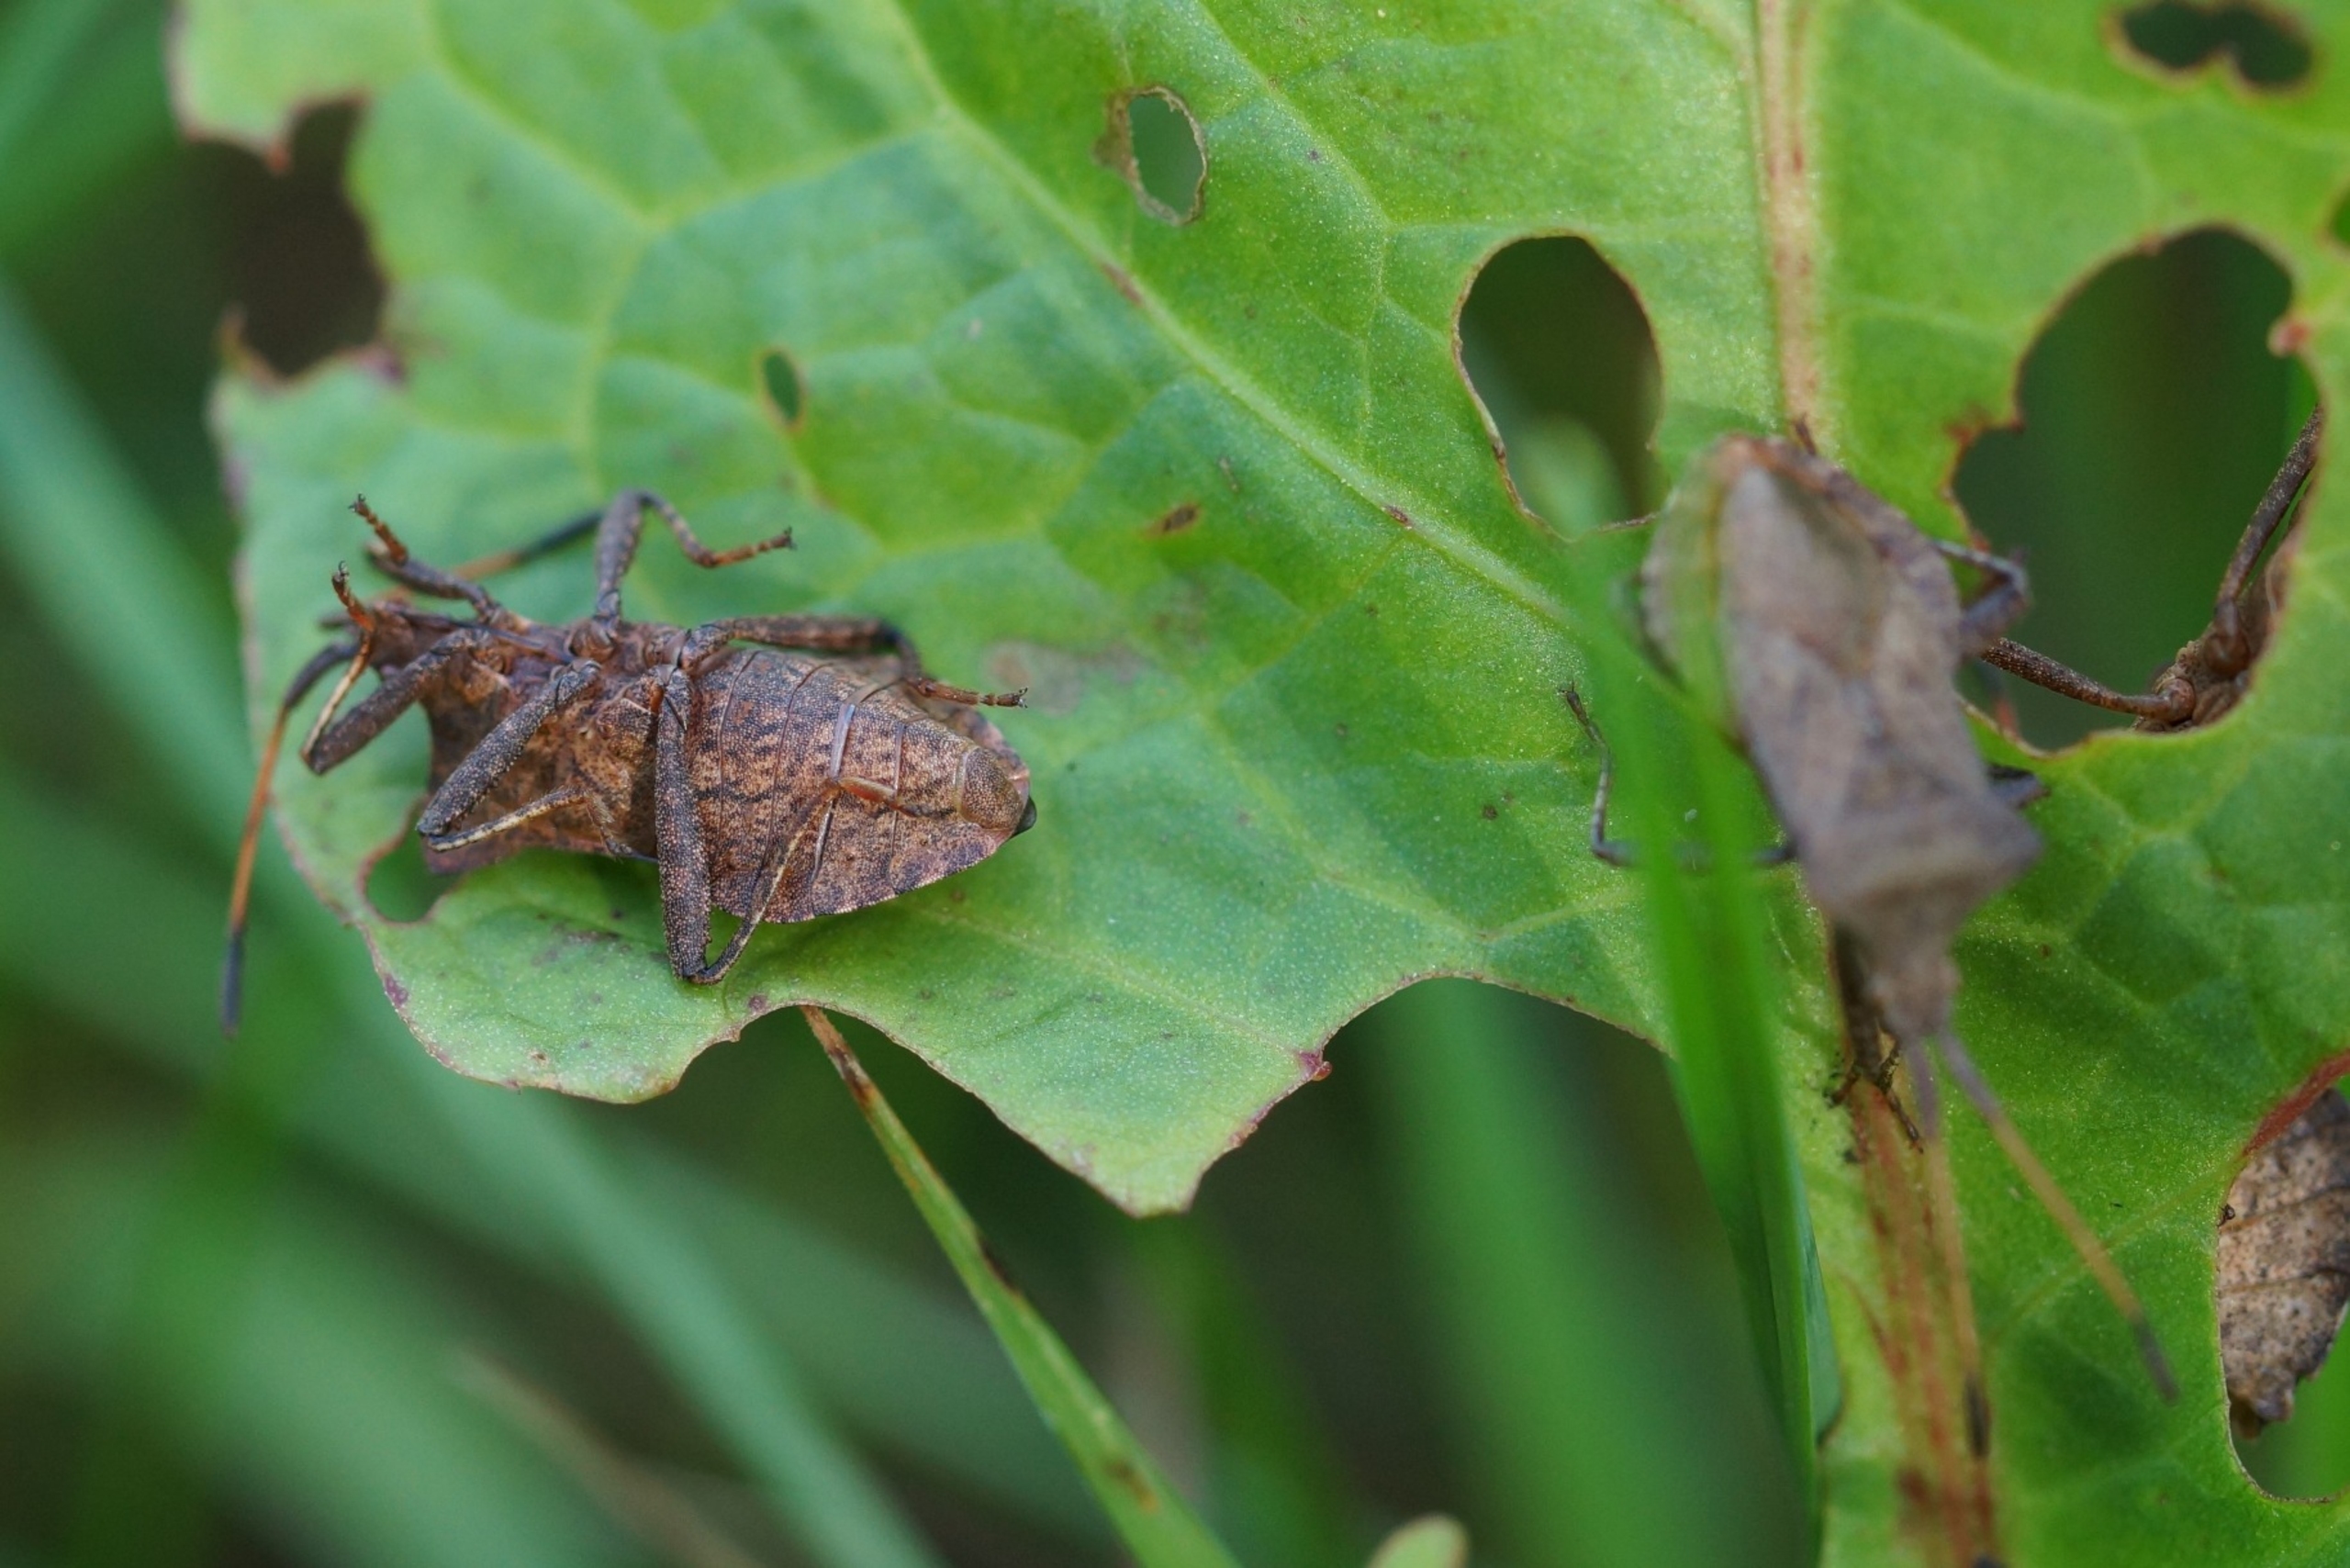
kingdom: Animalia
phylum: Arthropoda
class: Insecta
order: Hemiptera
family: Coreidae
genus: Coreus
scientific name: Coreus marginatus
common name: Skræppetæge
